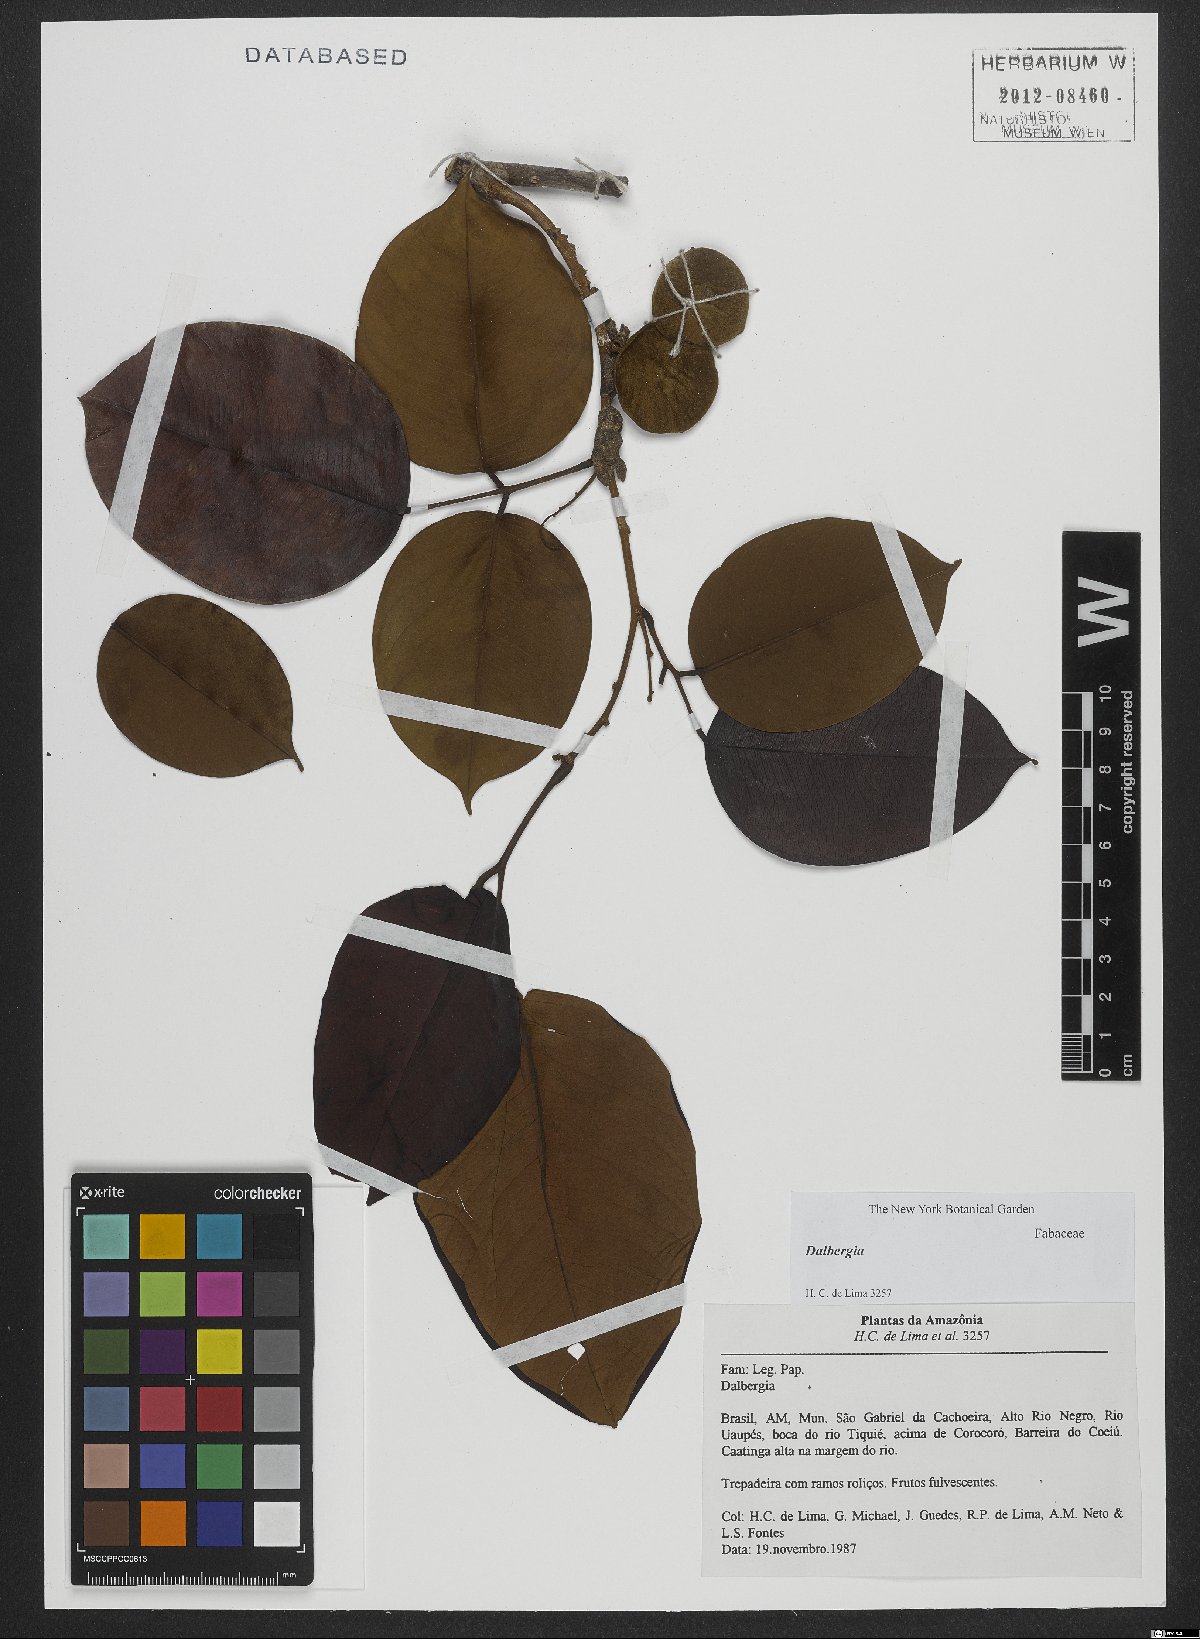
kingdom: Plantae
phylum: Tracheophyta
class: Magnoliopsida
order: Fabales
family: Fabaceae
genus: Dalbergia
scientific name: Dalbergia
